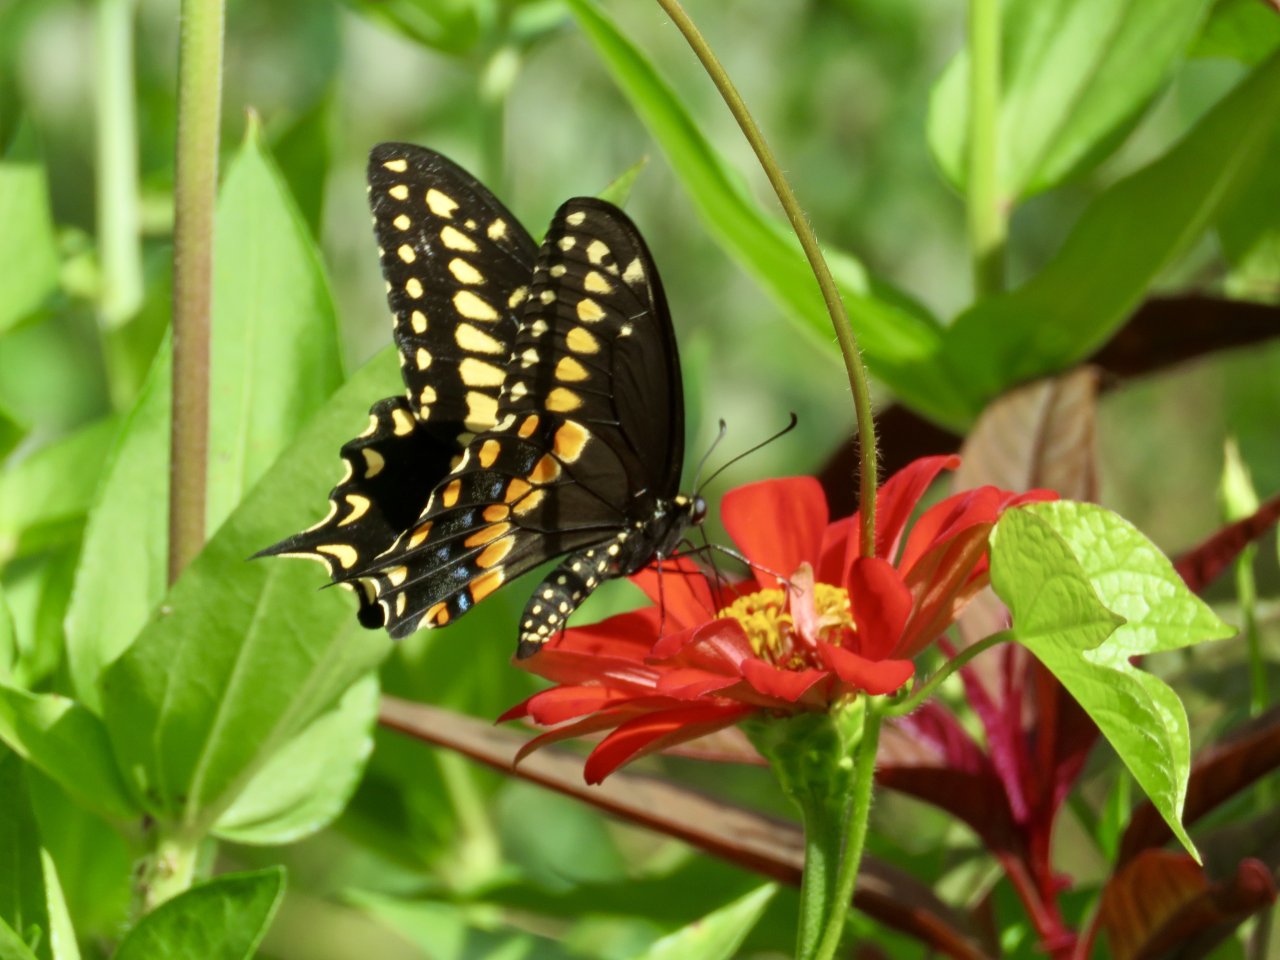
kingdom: Animalia
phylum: Arthropoda
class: Insecta
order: Lepidoptera
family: Papilionidae
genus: Papilio
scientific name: Papilio polyxenes
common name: Black Swallowtail
